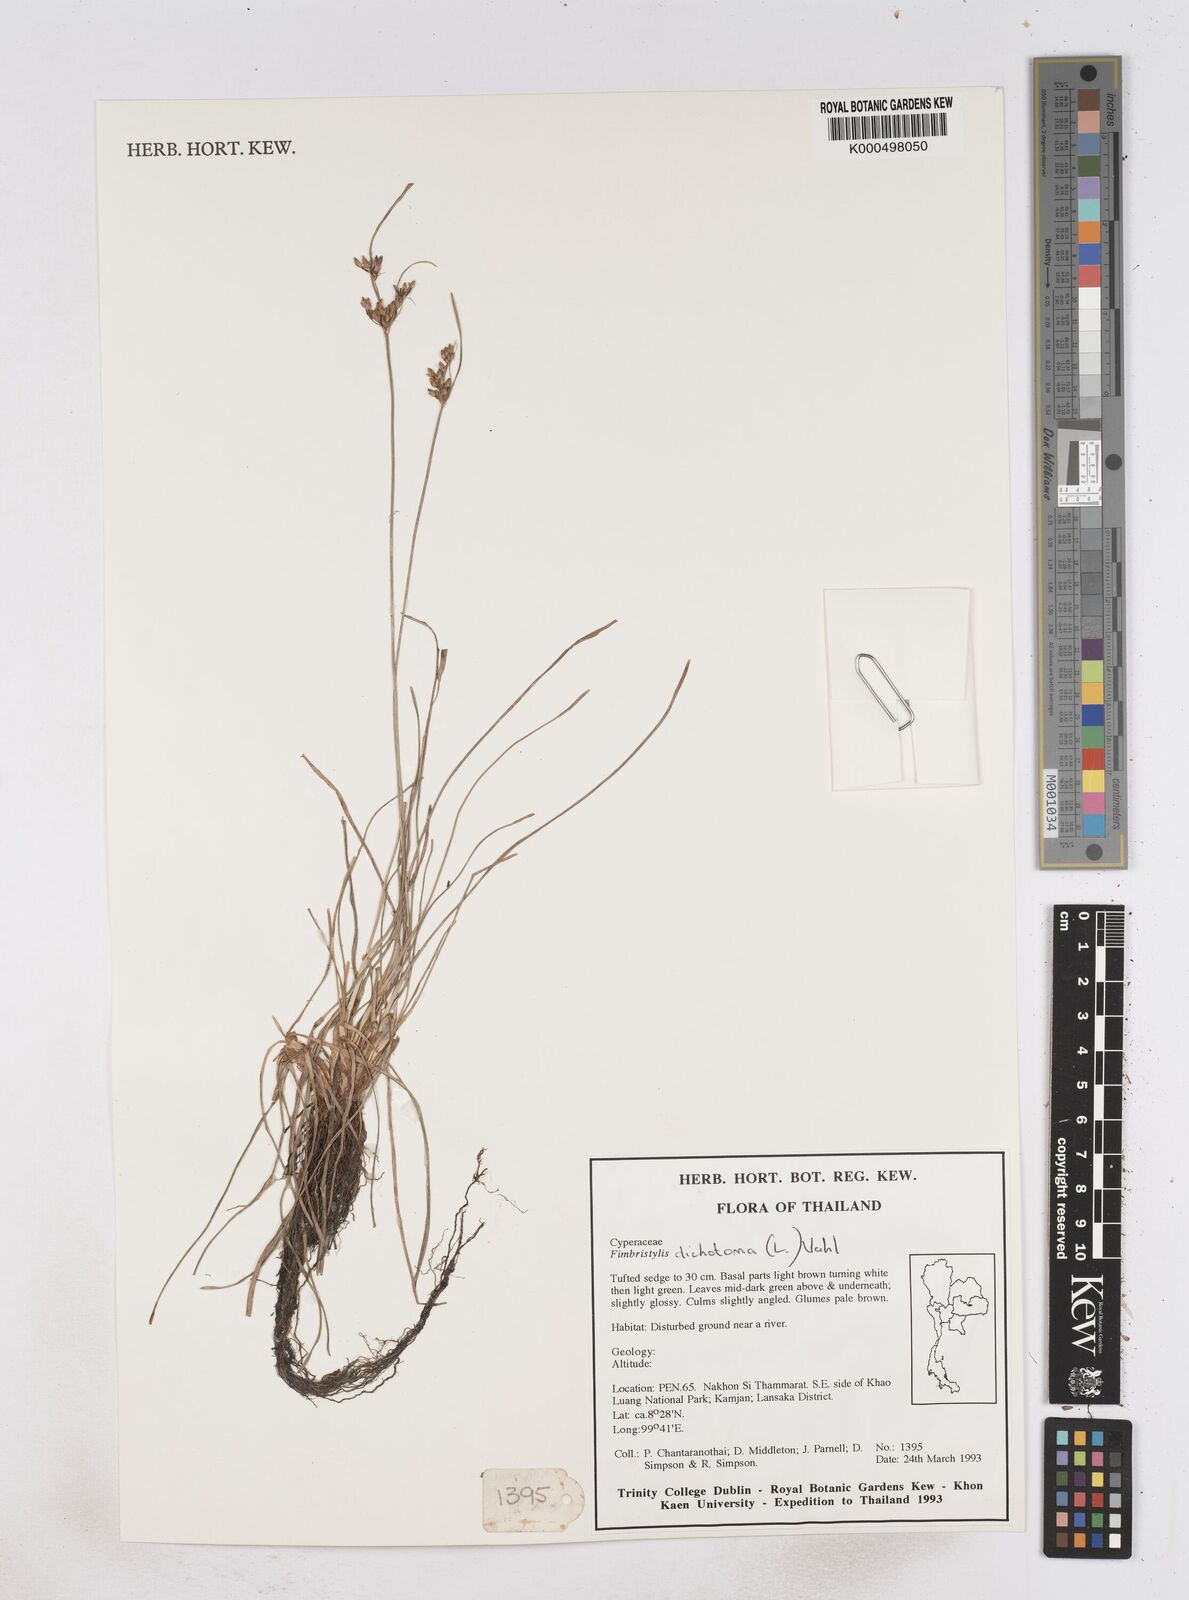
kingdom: Plantae
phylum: Tracheophyta
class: Liliopsida
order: Poales
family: Cyperaceae
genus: Fimbristylis
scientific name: Fimbristylis dichotoma
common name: Forked fimbry
